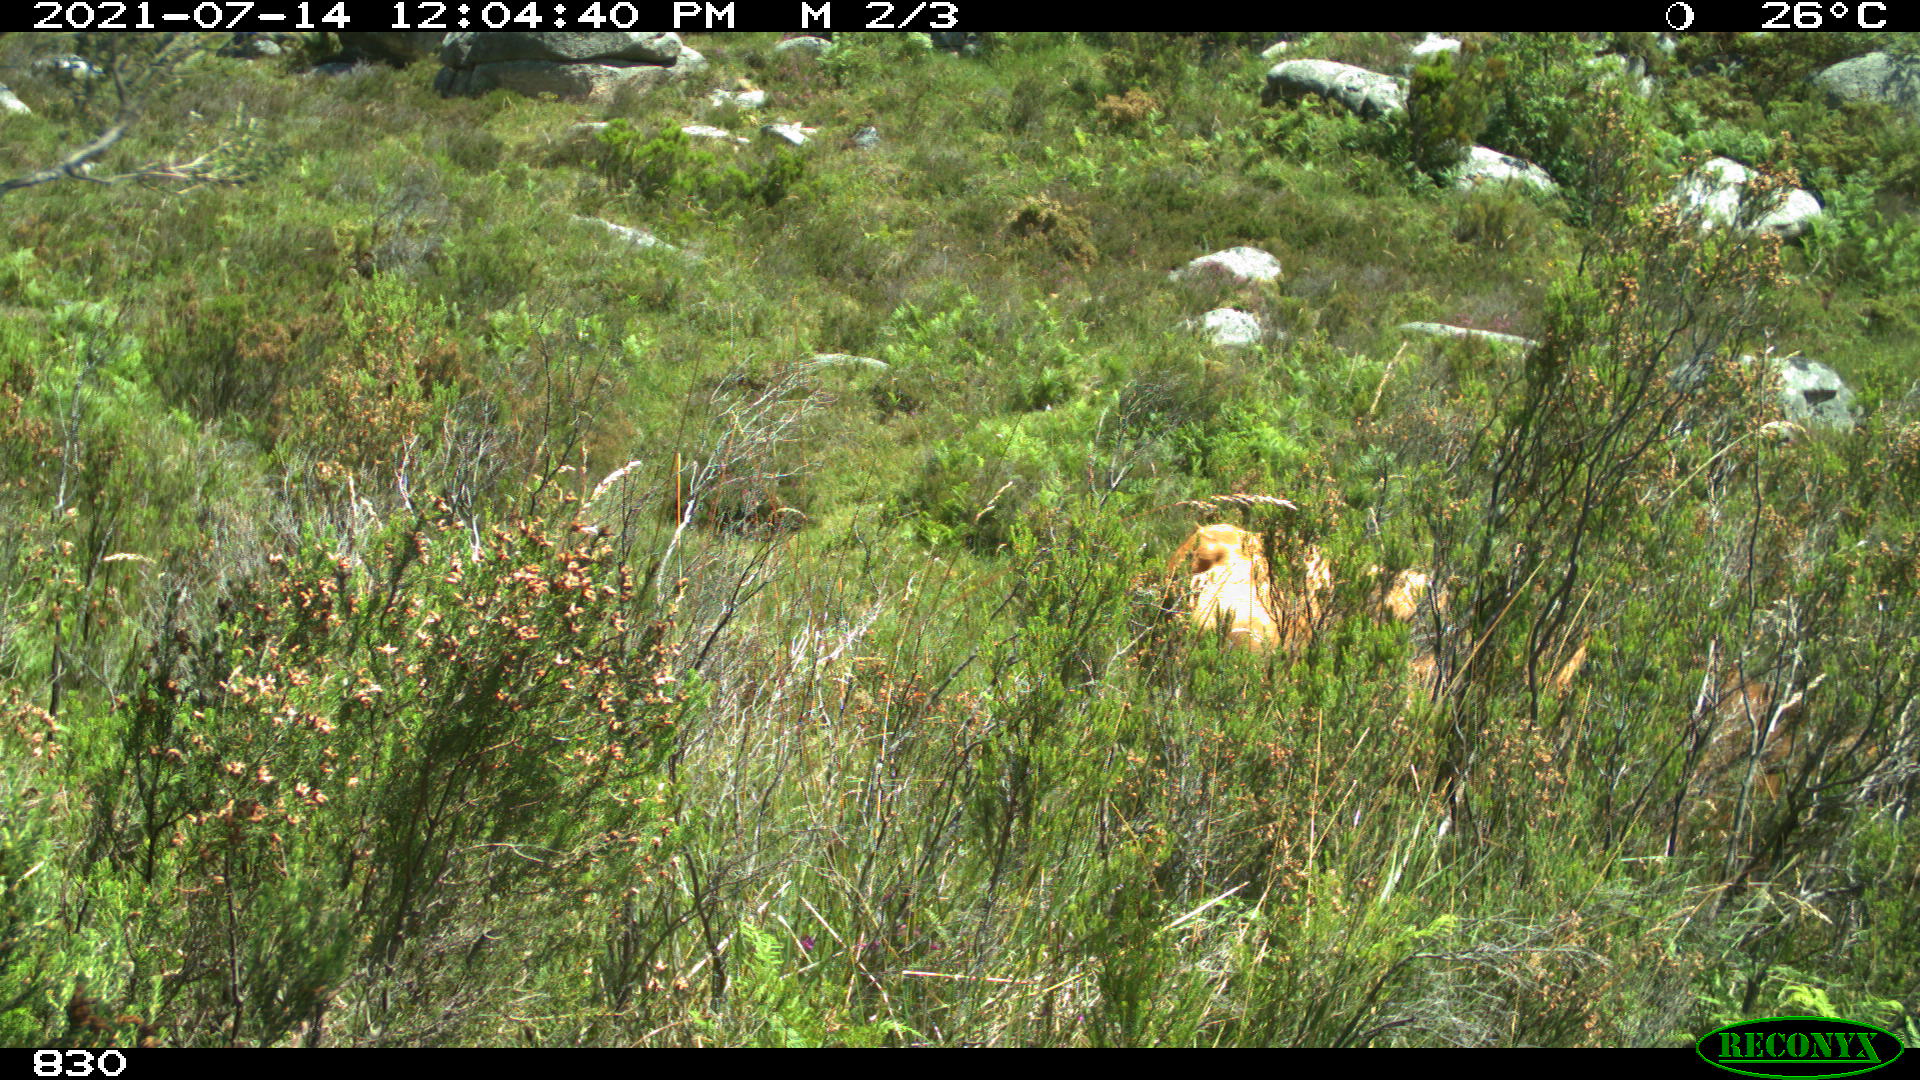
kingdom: Animalia
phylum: Chordata
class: Mammalia
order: Artiodactyla
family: Bovidae
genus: Bos
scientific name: Bos taurus
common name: Domesticated cattle
